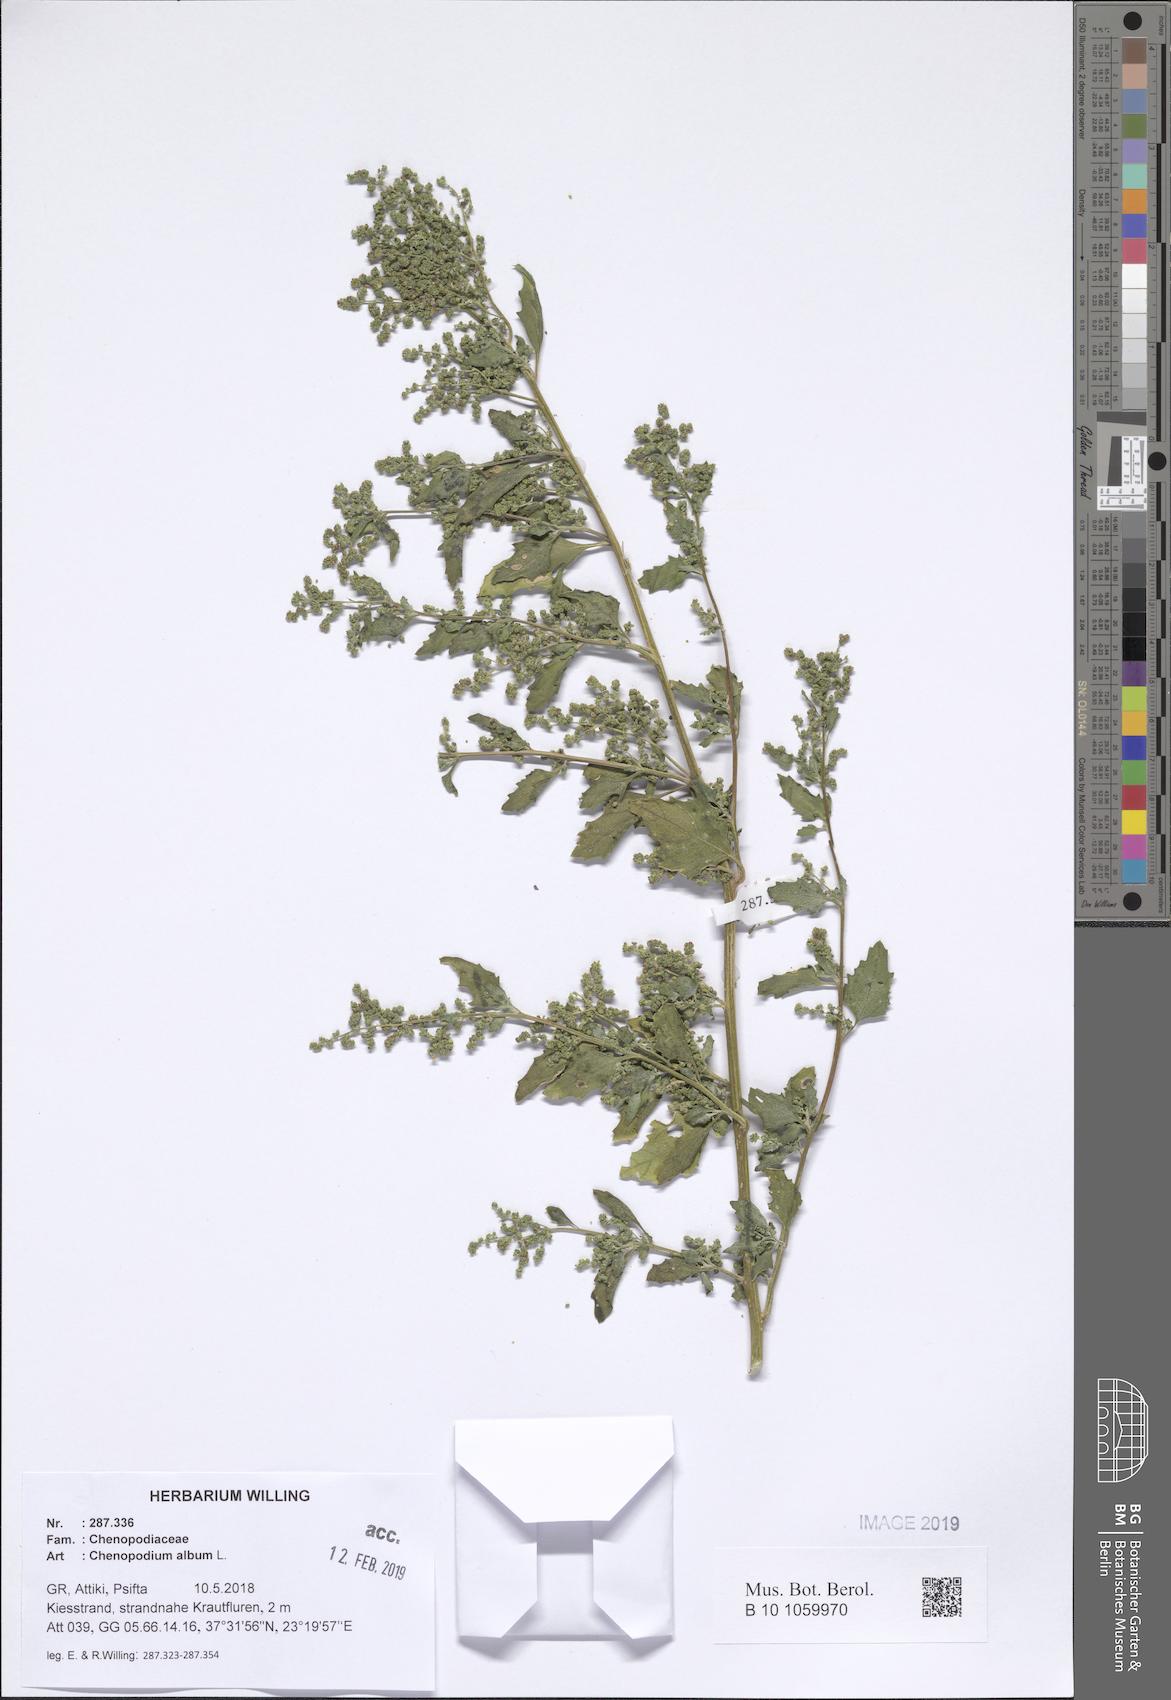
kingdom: Plantae
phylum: Tracheophyta
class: Magnoliopsida
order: Caryophyllales
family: Amaranthaceae
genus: Chenopodiastrum
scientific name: Chenopodiastrum murale
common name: Sowbane
